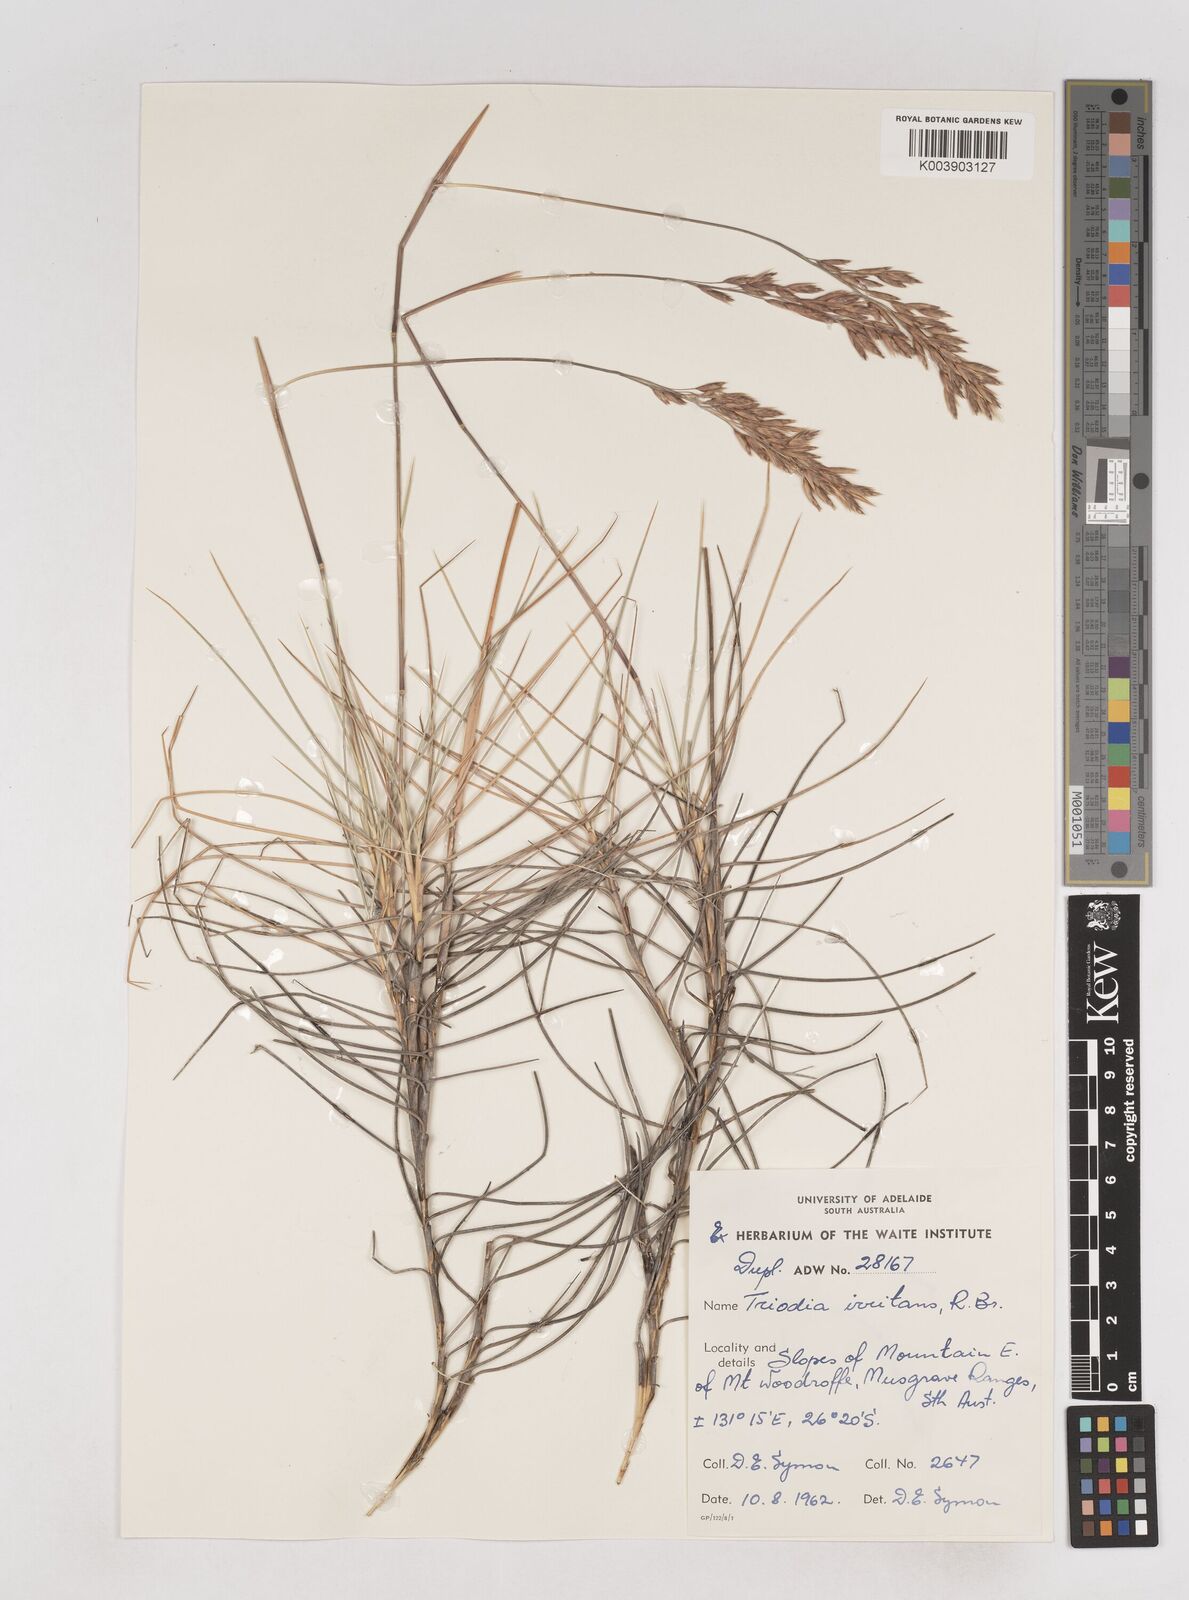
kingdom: Plantae
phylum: Tracheophyta
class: Liliopsida
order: Poales
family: Poaceae
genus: Triodia
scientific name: Triodia irritans
